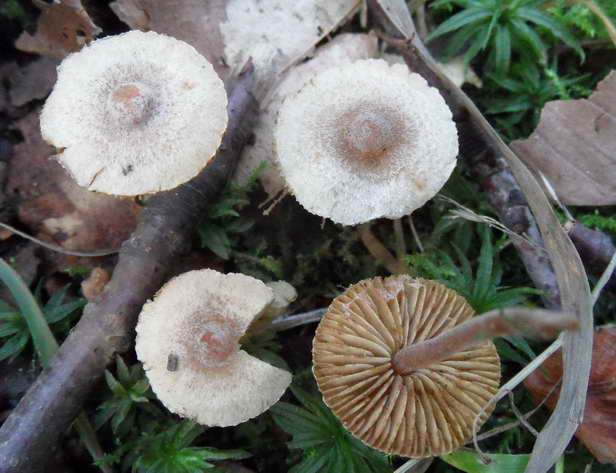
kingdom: Fungi
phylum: Basidiomycota
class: Agaricomycetes
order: Agaricales
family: Inocybaceae
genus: Inocybe
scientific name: Inocybe petiginosa
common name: liden trævlhat
